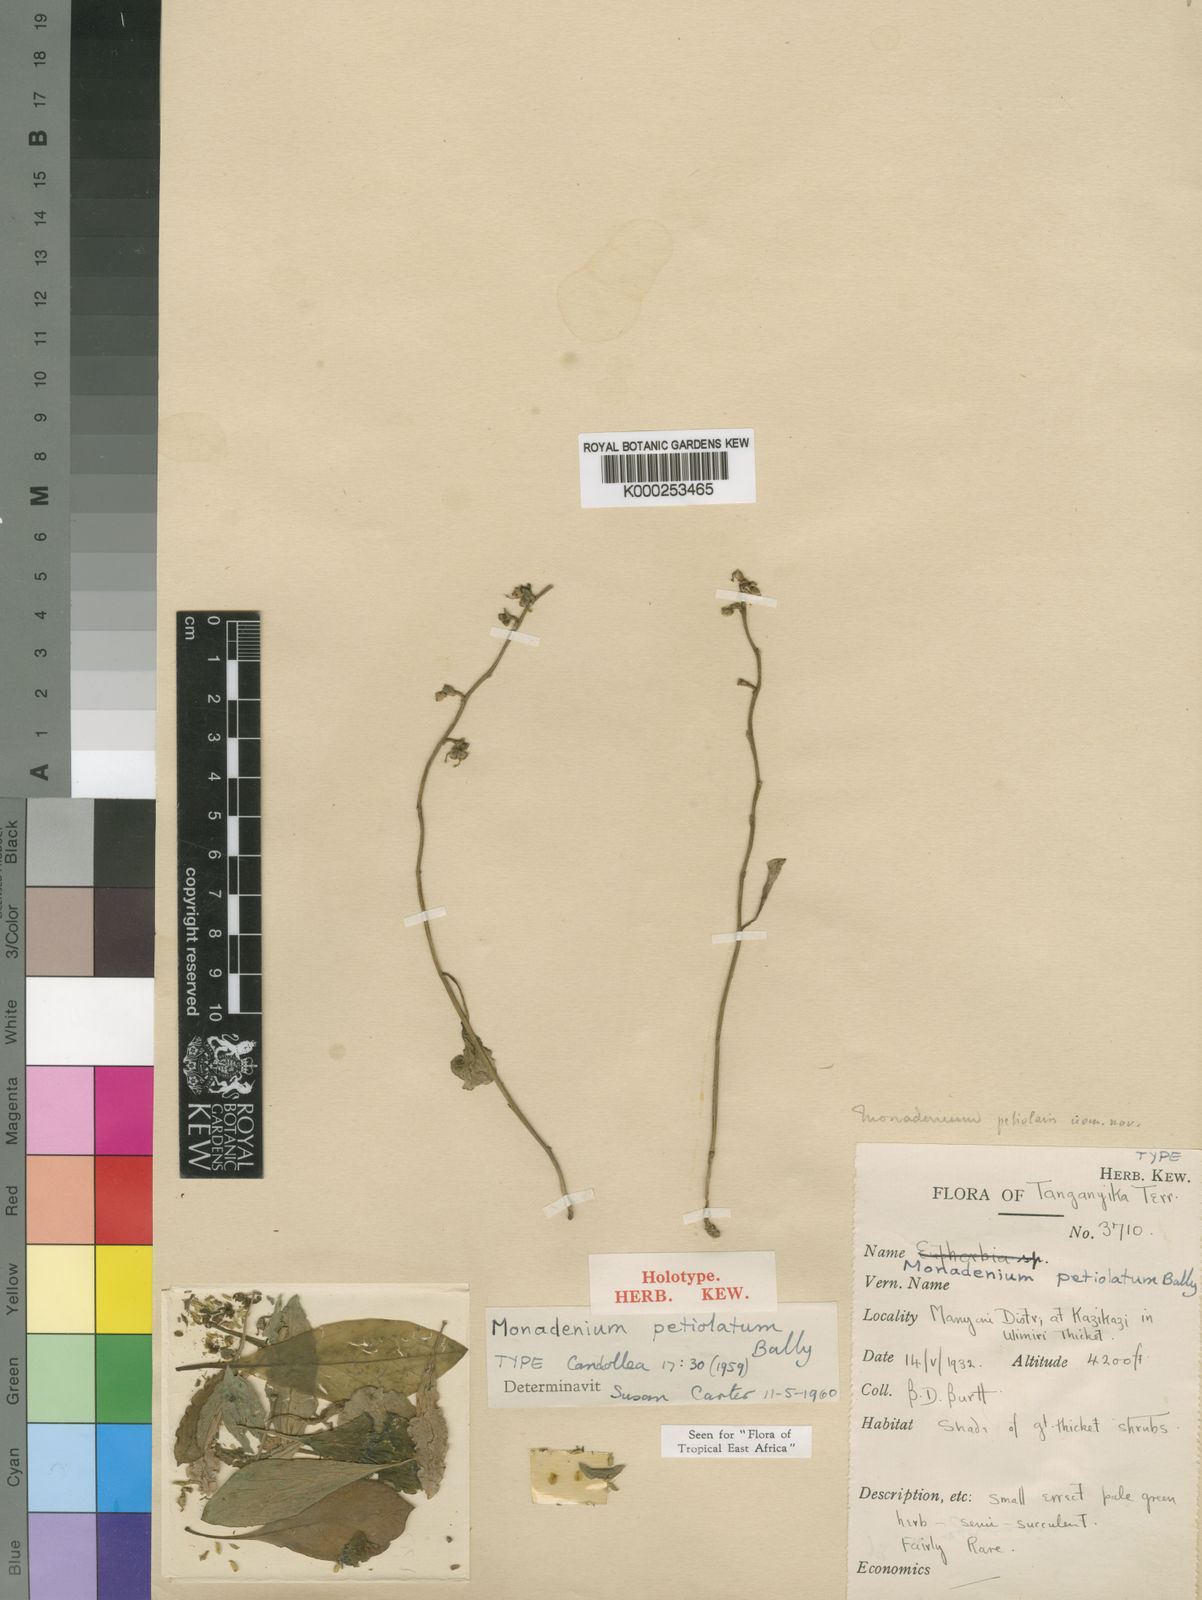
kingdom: Plantae
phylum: Tracheophyta
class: Magnoliopsida
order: Malpighiales
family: Euphorbiaceae
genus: Euphorbia
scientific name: Euphorbia pseudopetiolata
